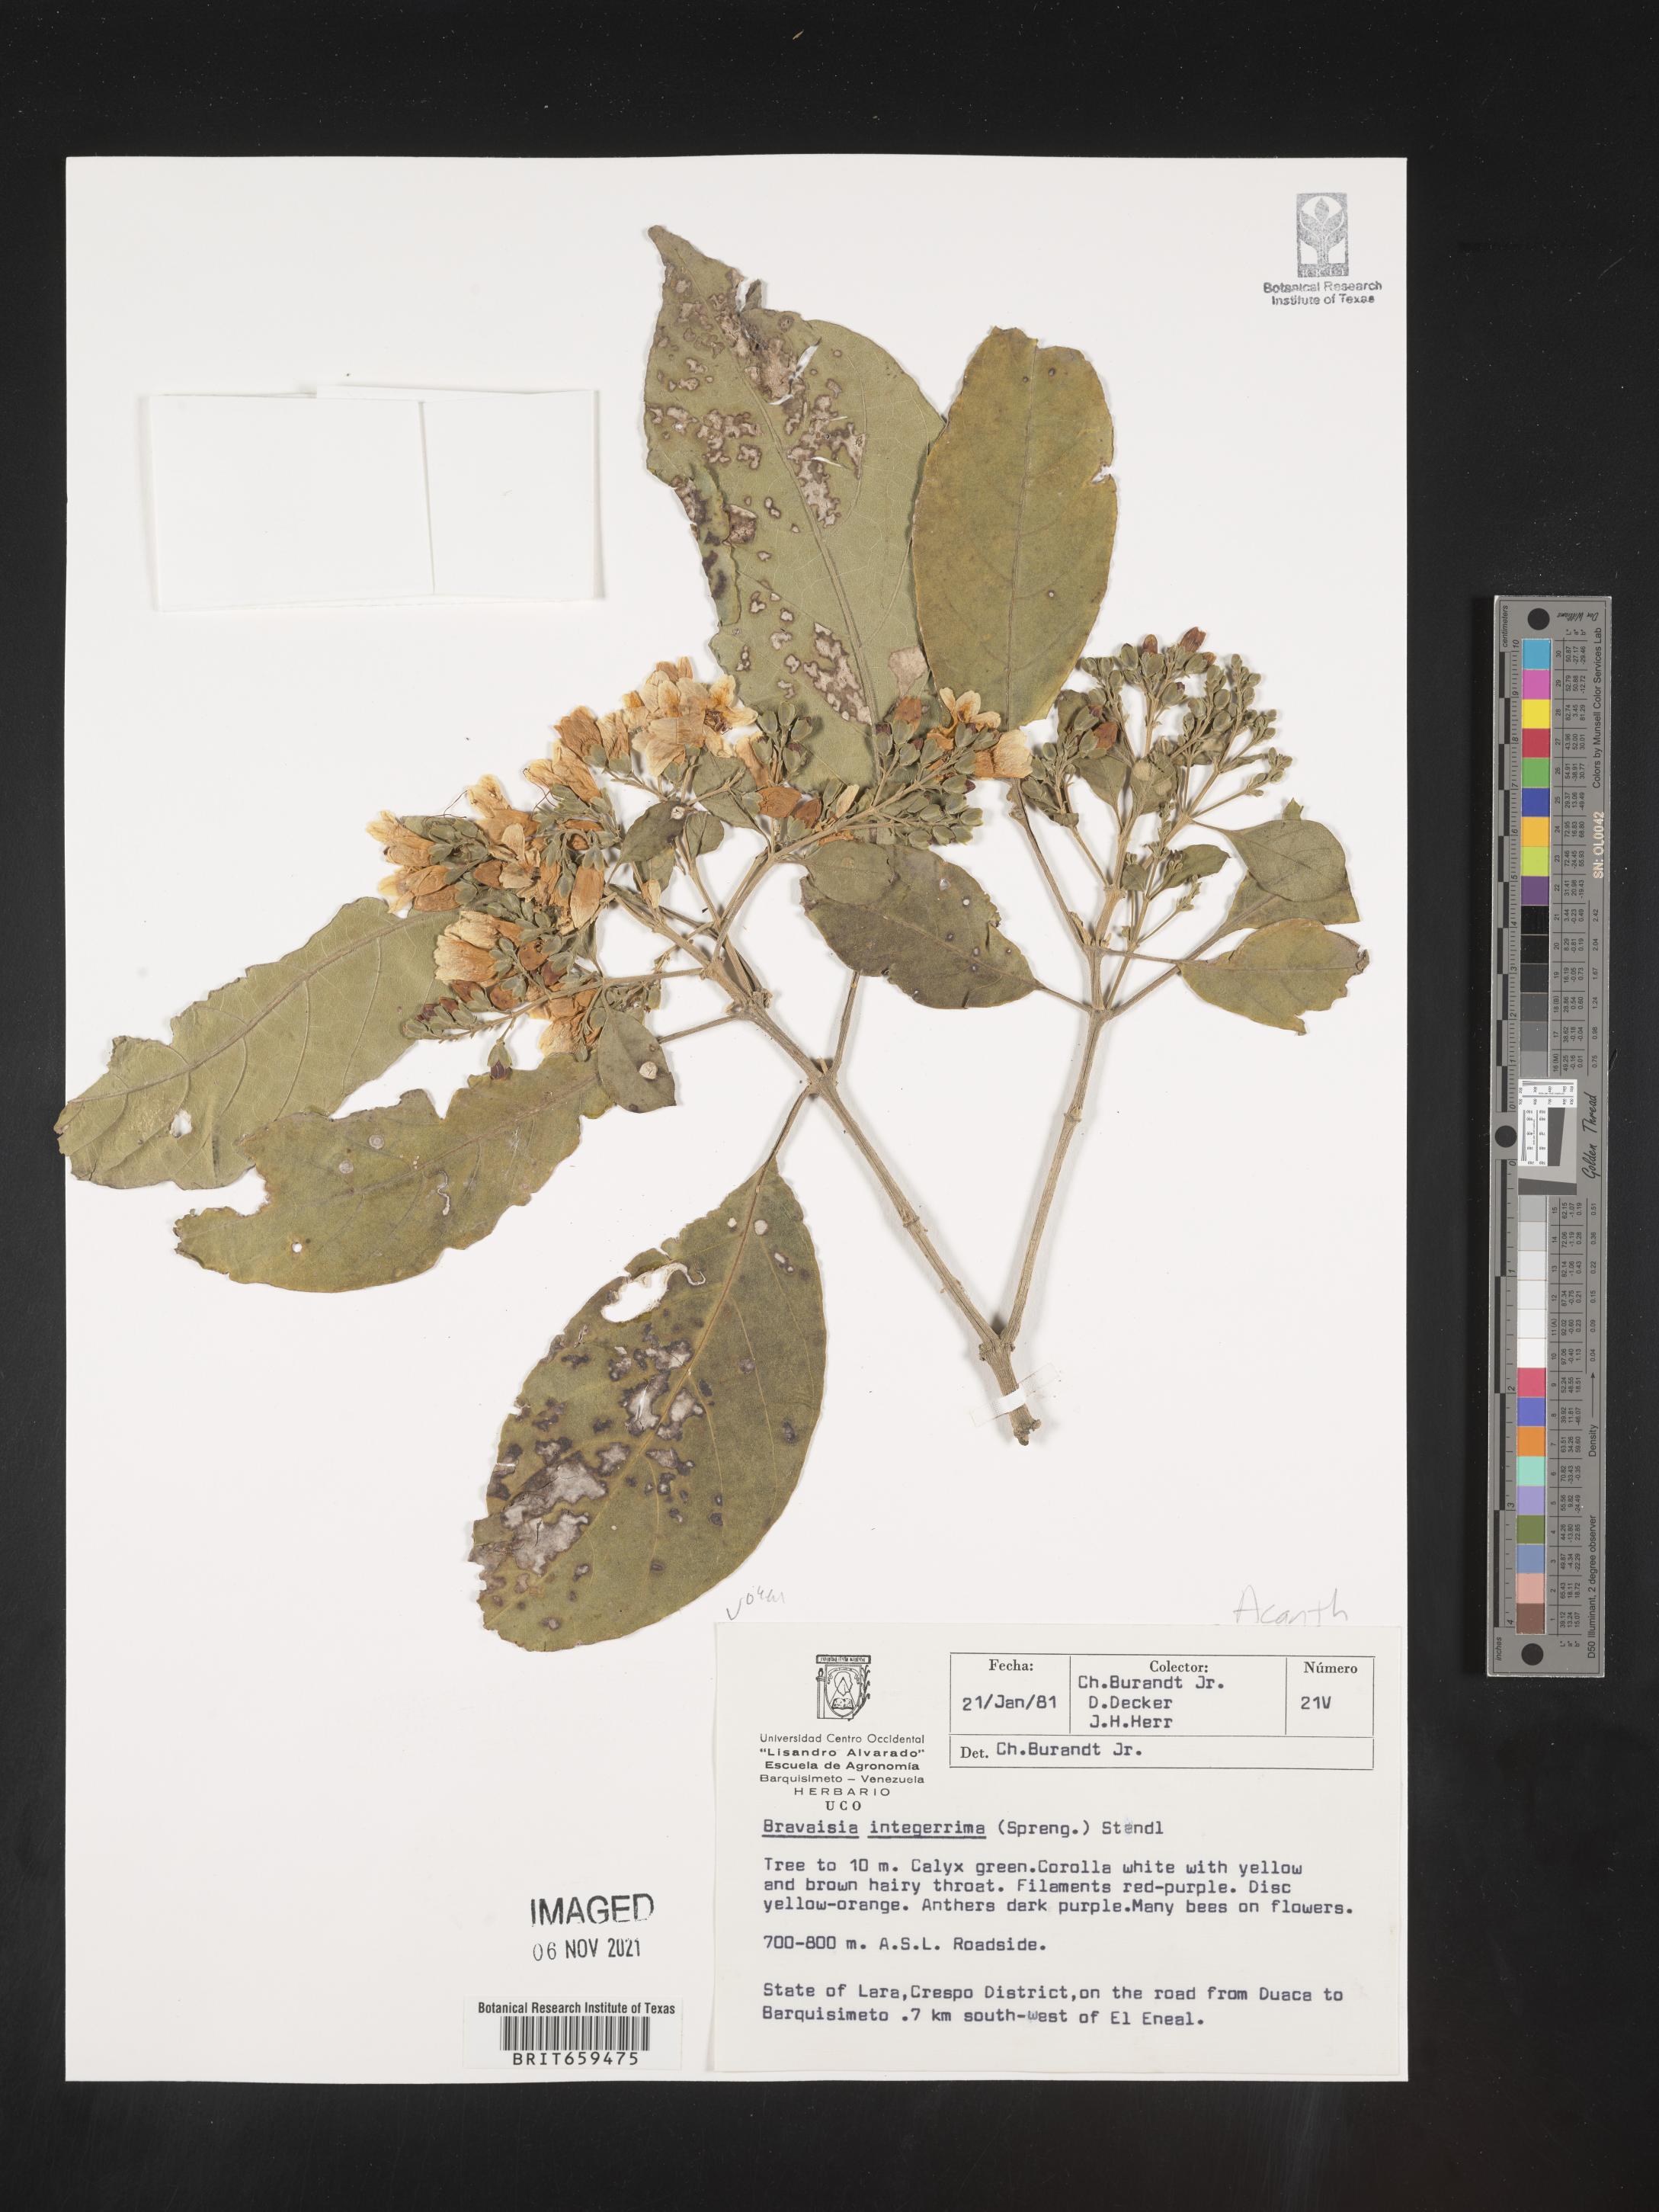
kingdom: Plantae
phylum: Tracheophyta
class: Magnoliopsida
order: Lamiales
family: Acanthaceae
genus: Bravaisia
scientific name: Bravaisia
